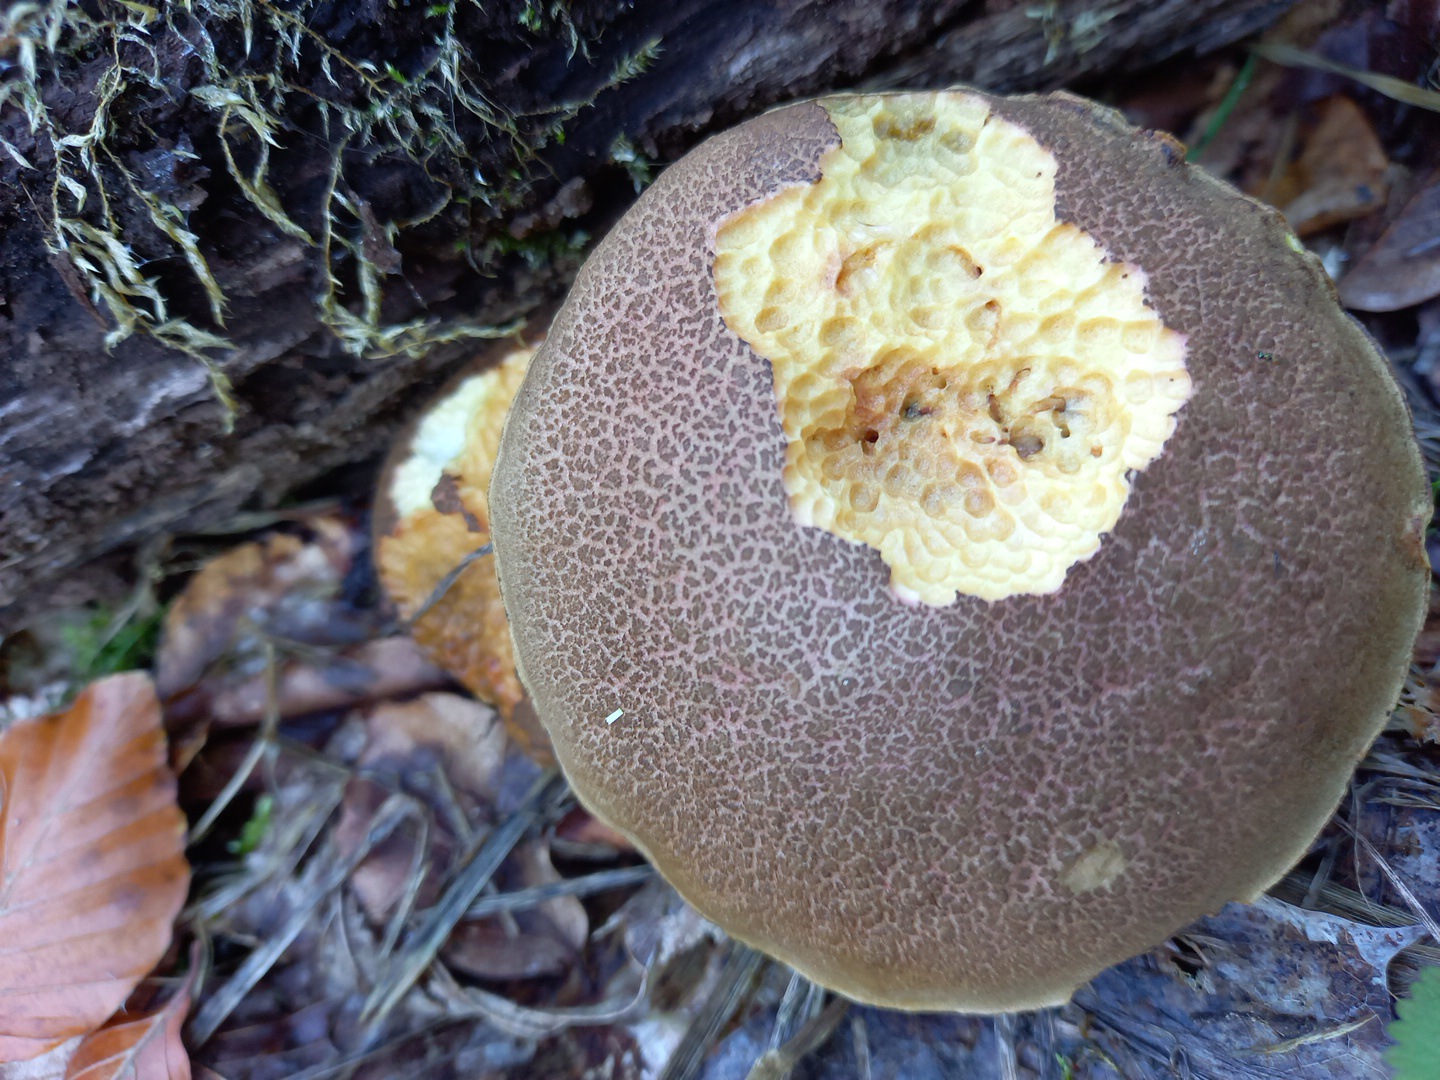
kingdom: Fungi
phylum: Basidiomycota
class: Agaricomycetes
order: Boletales
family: Boletaceae
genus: Xerocomellus
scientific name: Xerocomellus cisalpinus
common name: finsprukken rørhat
